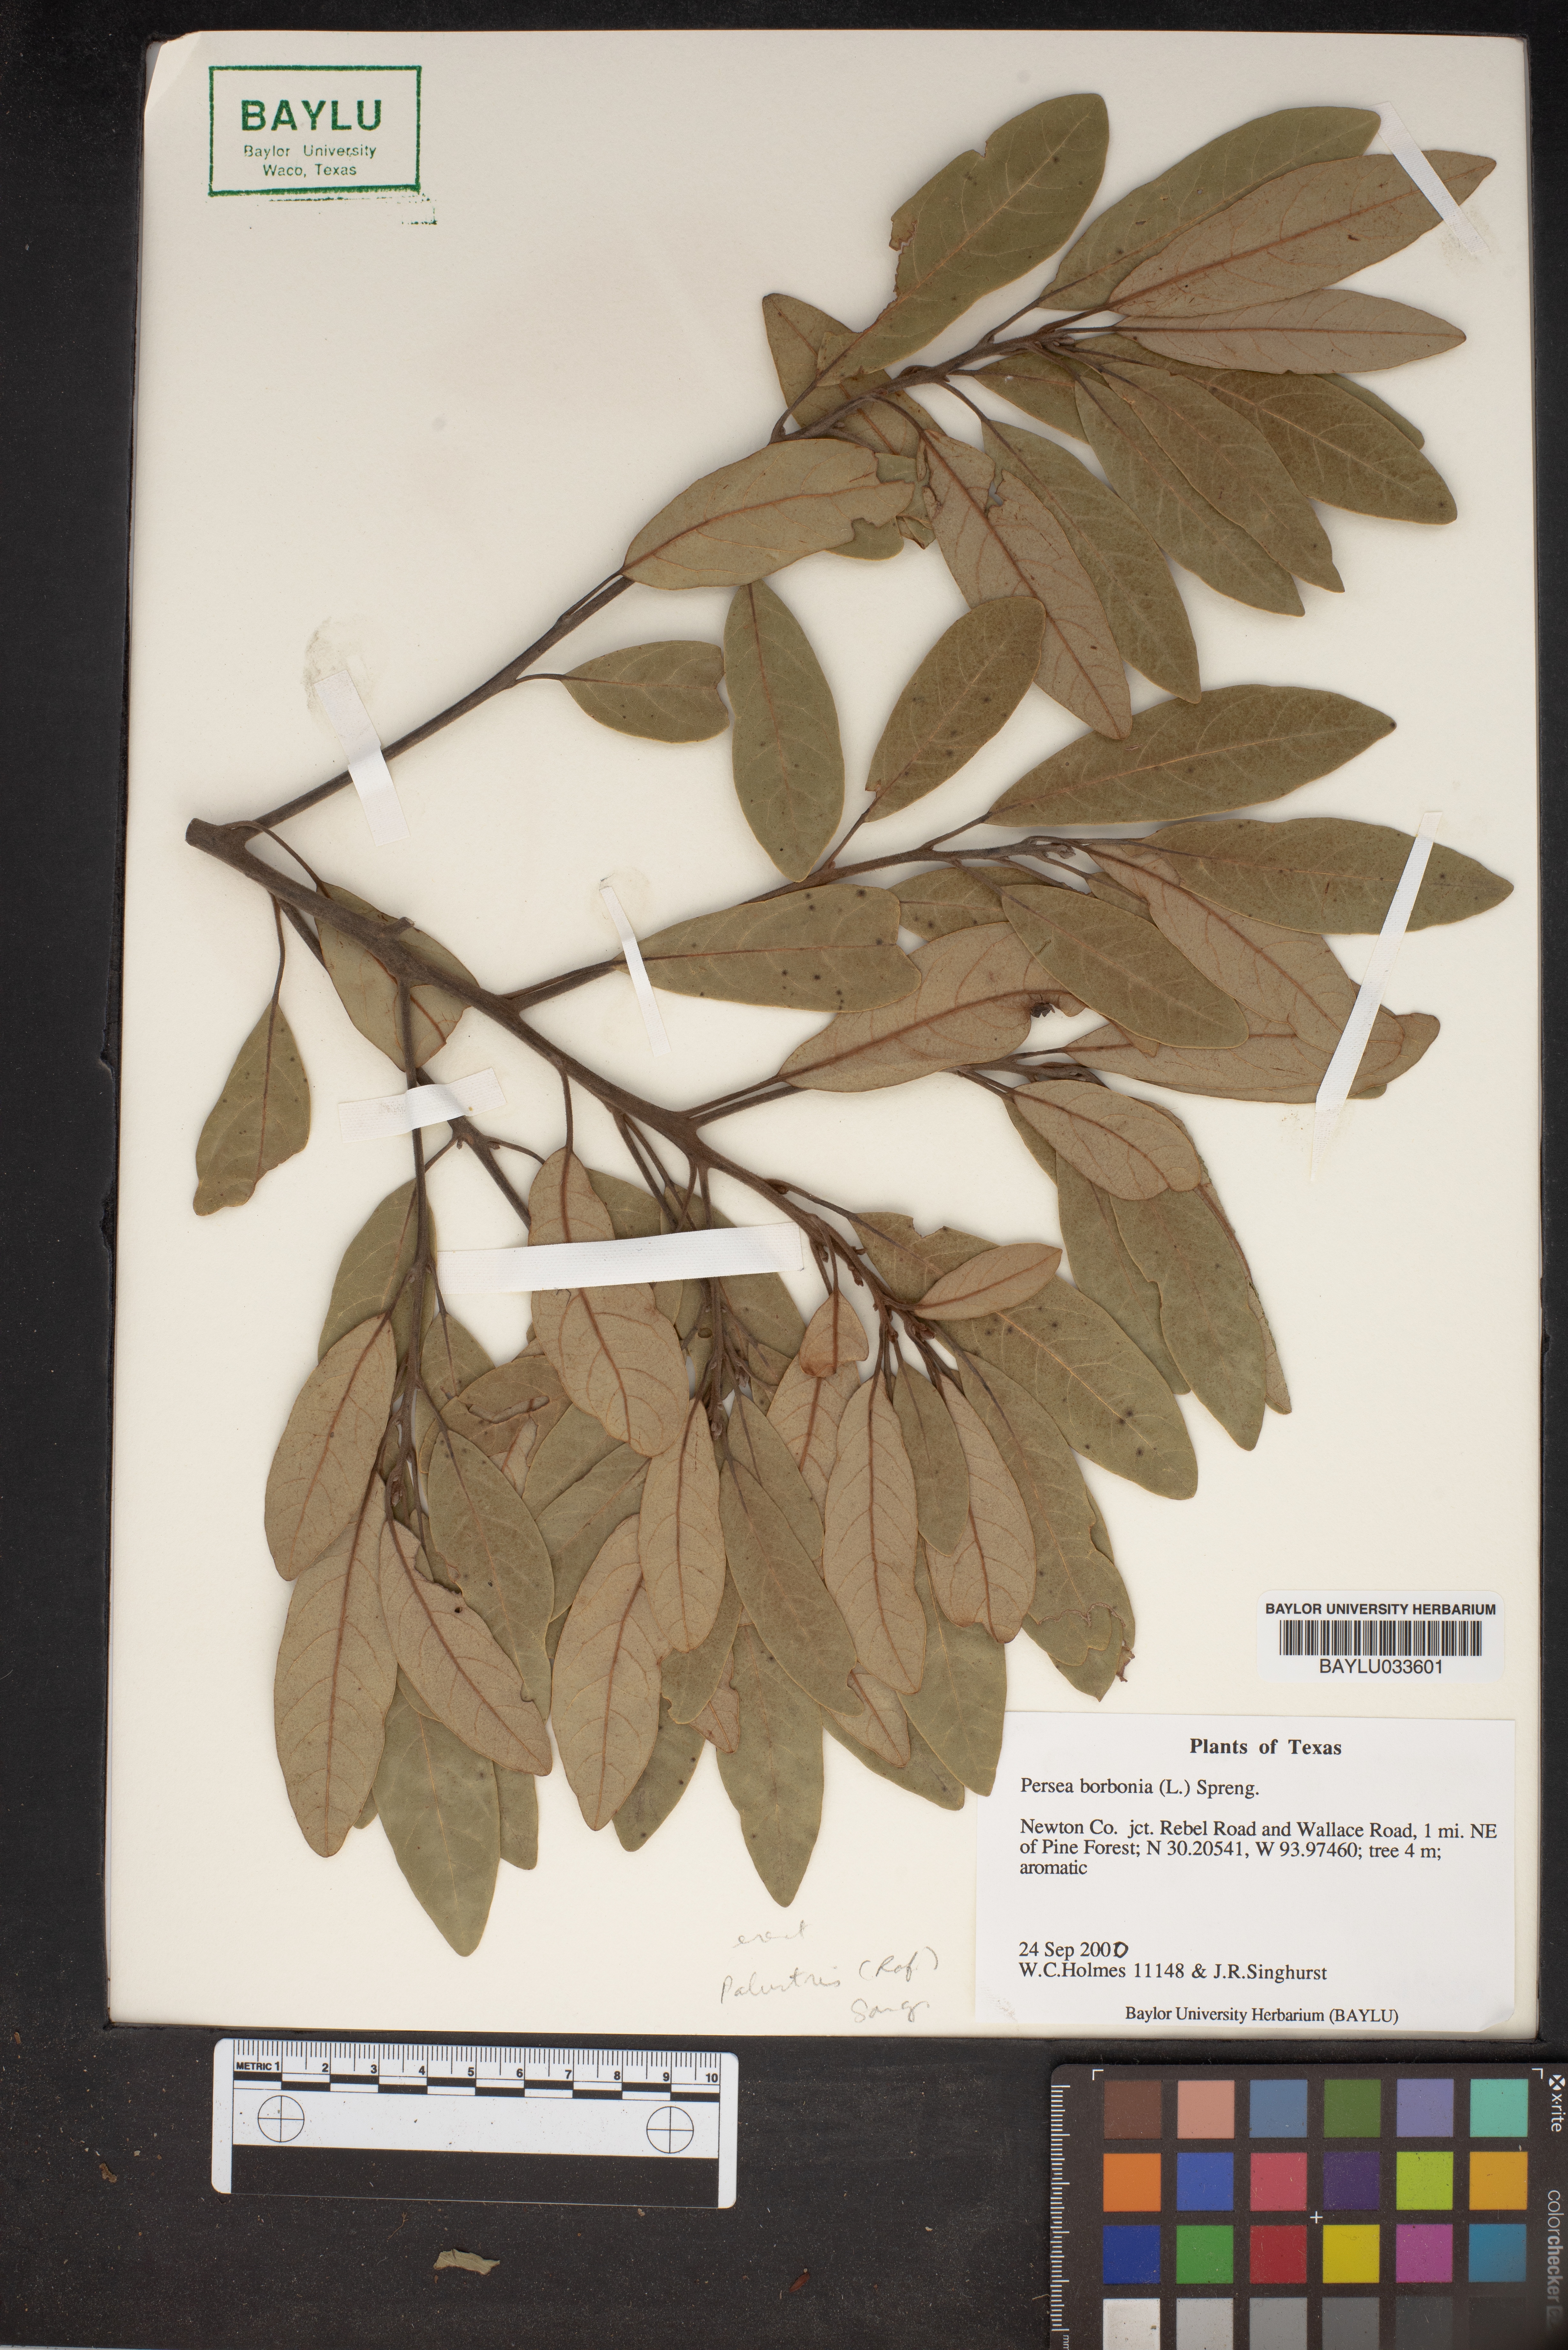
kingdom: Plantae
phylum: Tracheophyta
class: Magnoliopsida
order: Laurales
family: Lauraceae
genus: Persea
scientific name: Persea borbonia
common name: Redbay
